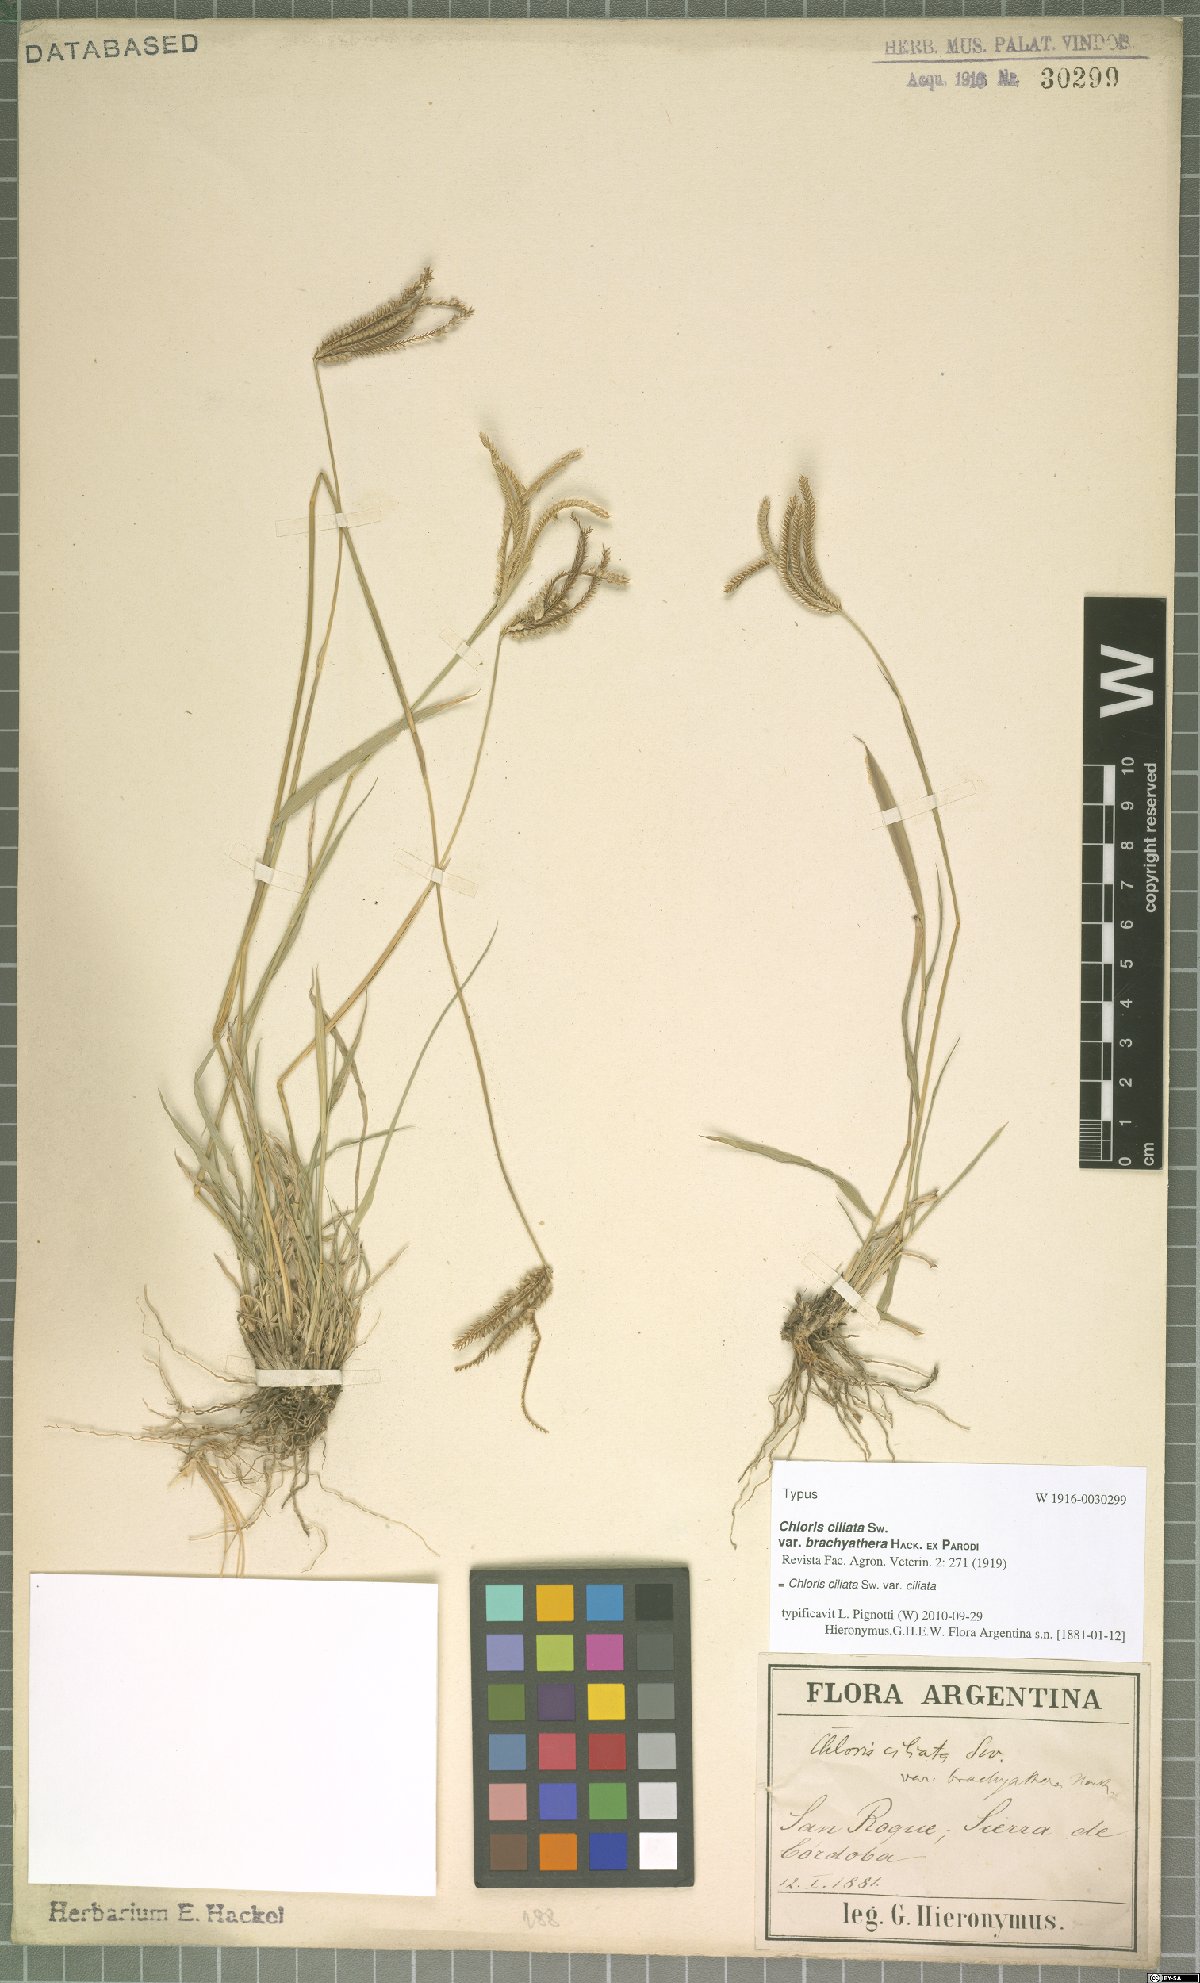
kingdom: Plantae
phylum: Tracheophyta
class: Liliopsida
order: Poales
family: Poaceae
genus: Stapfochloa
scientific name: Stapfochloa ciliata
